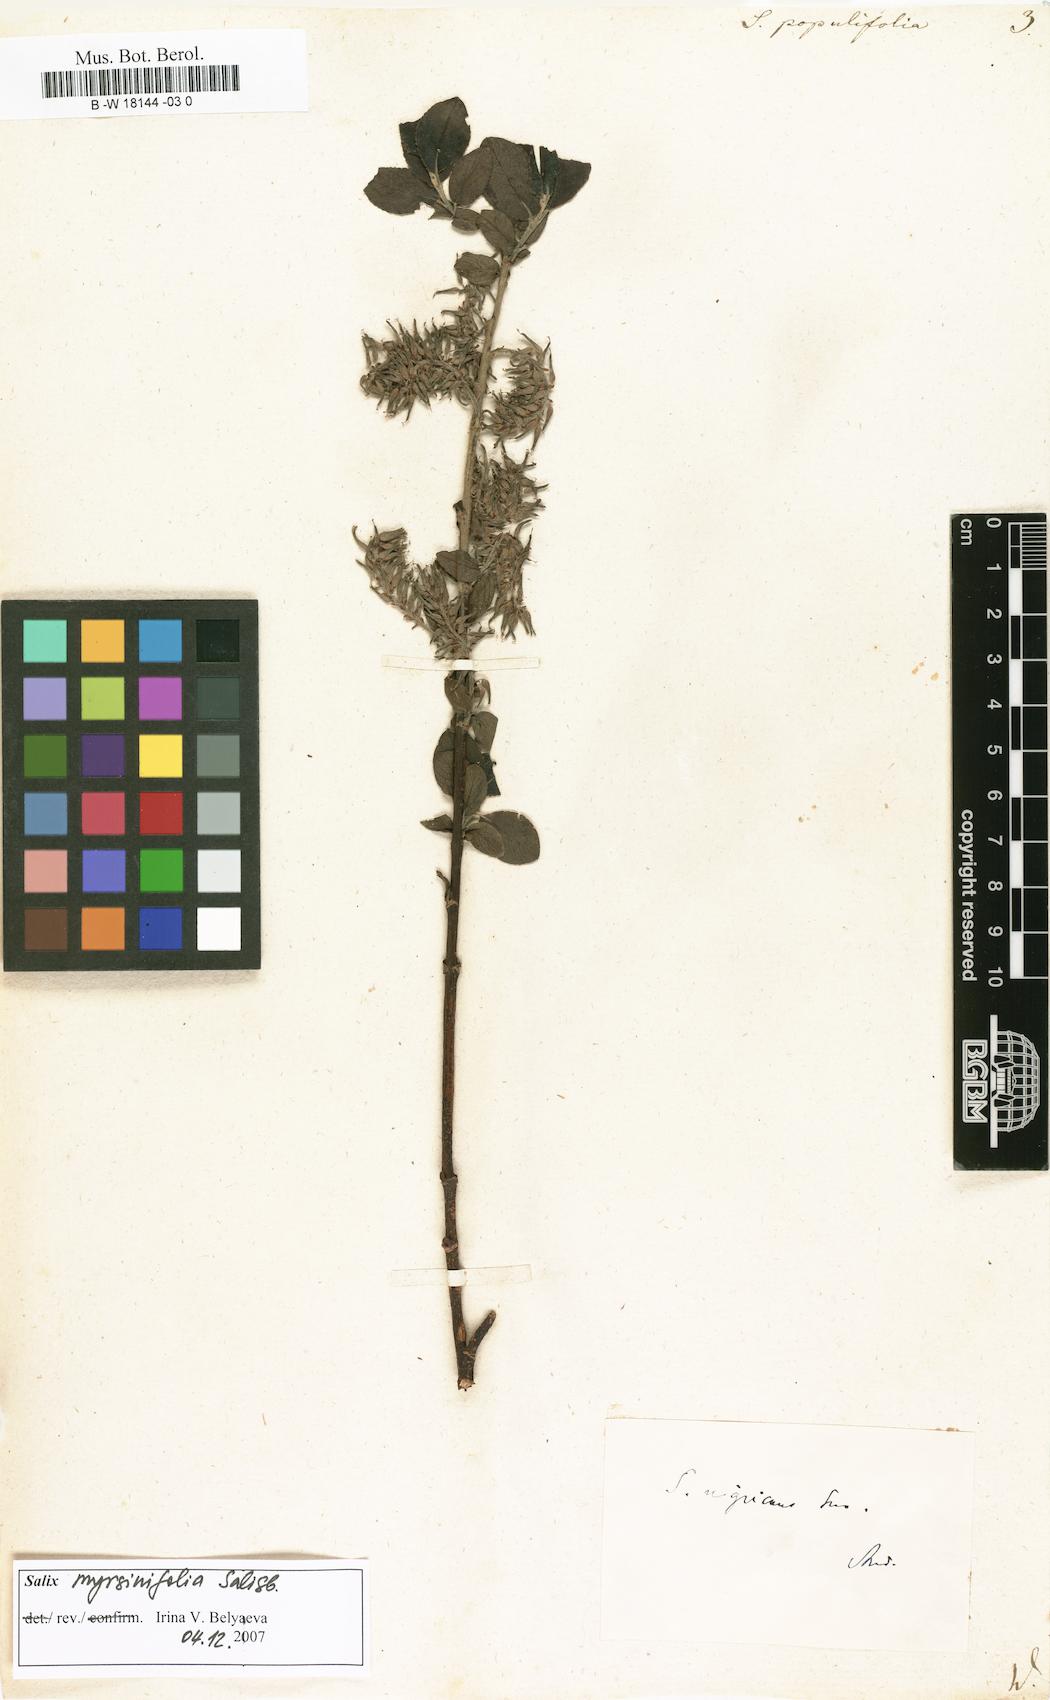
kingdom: Plantae
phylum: Tracheophyta
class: Magnoliopsida
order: Malpighiales
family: Salicaceae
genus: Salix
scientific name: Salix
